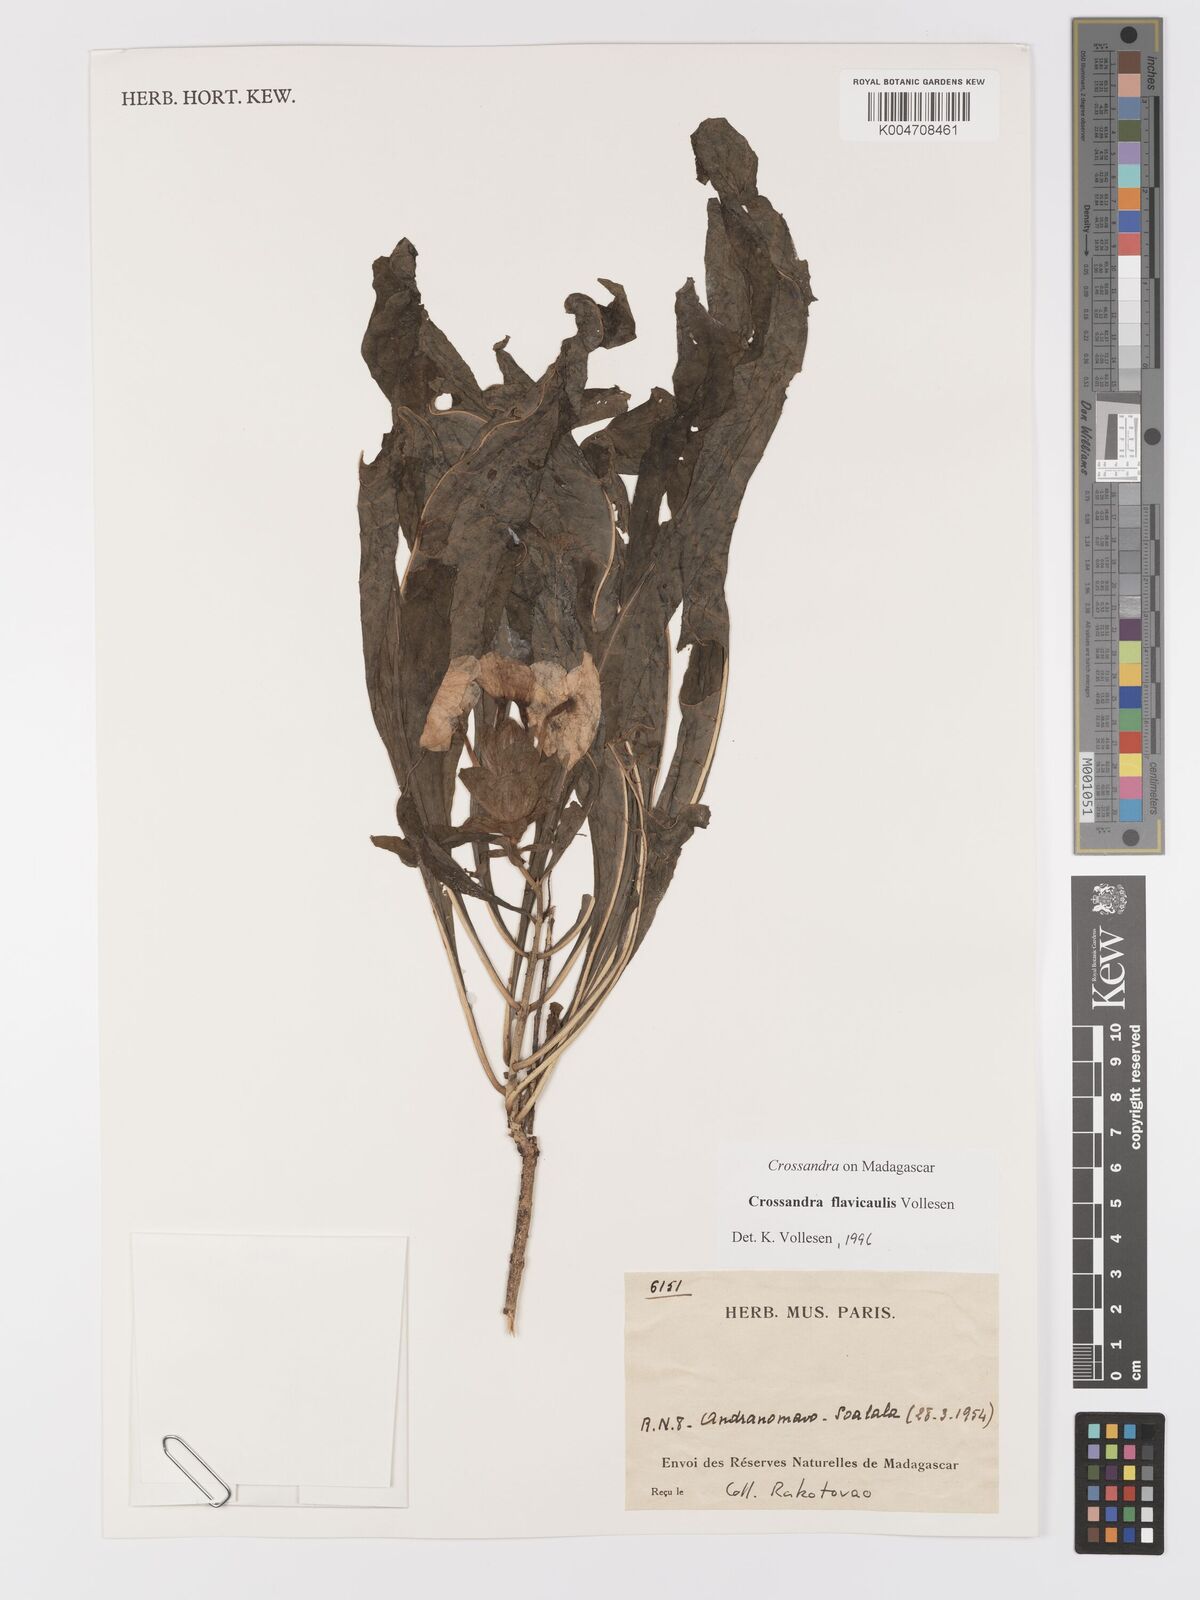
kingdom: Plantae
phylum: Tracheophyta
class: Magnoliopsida
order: Lamiales
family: Acanthaceae
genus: Crossandra
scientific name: Crossandra flavicaulis
